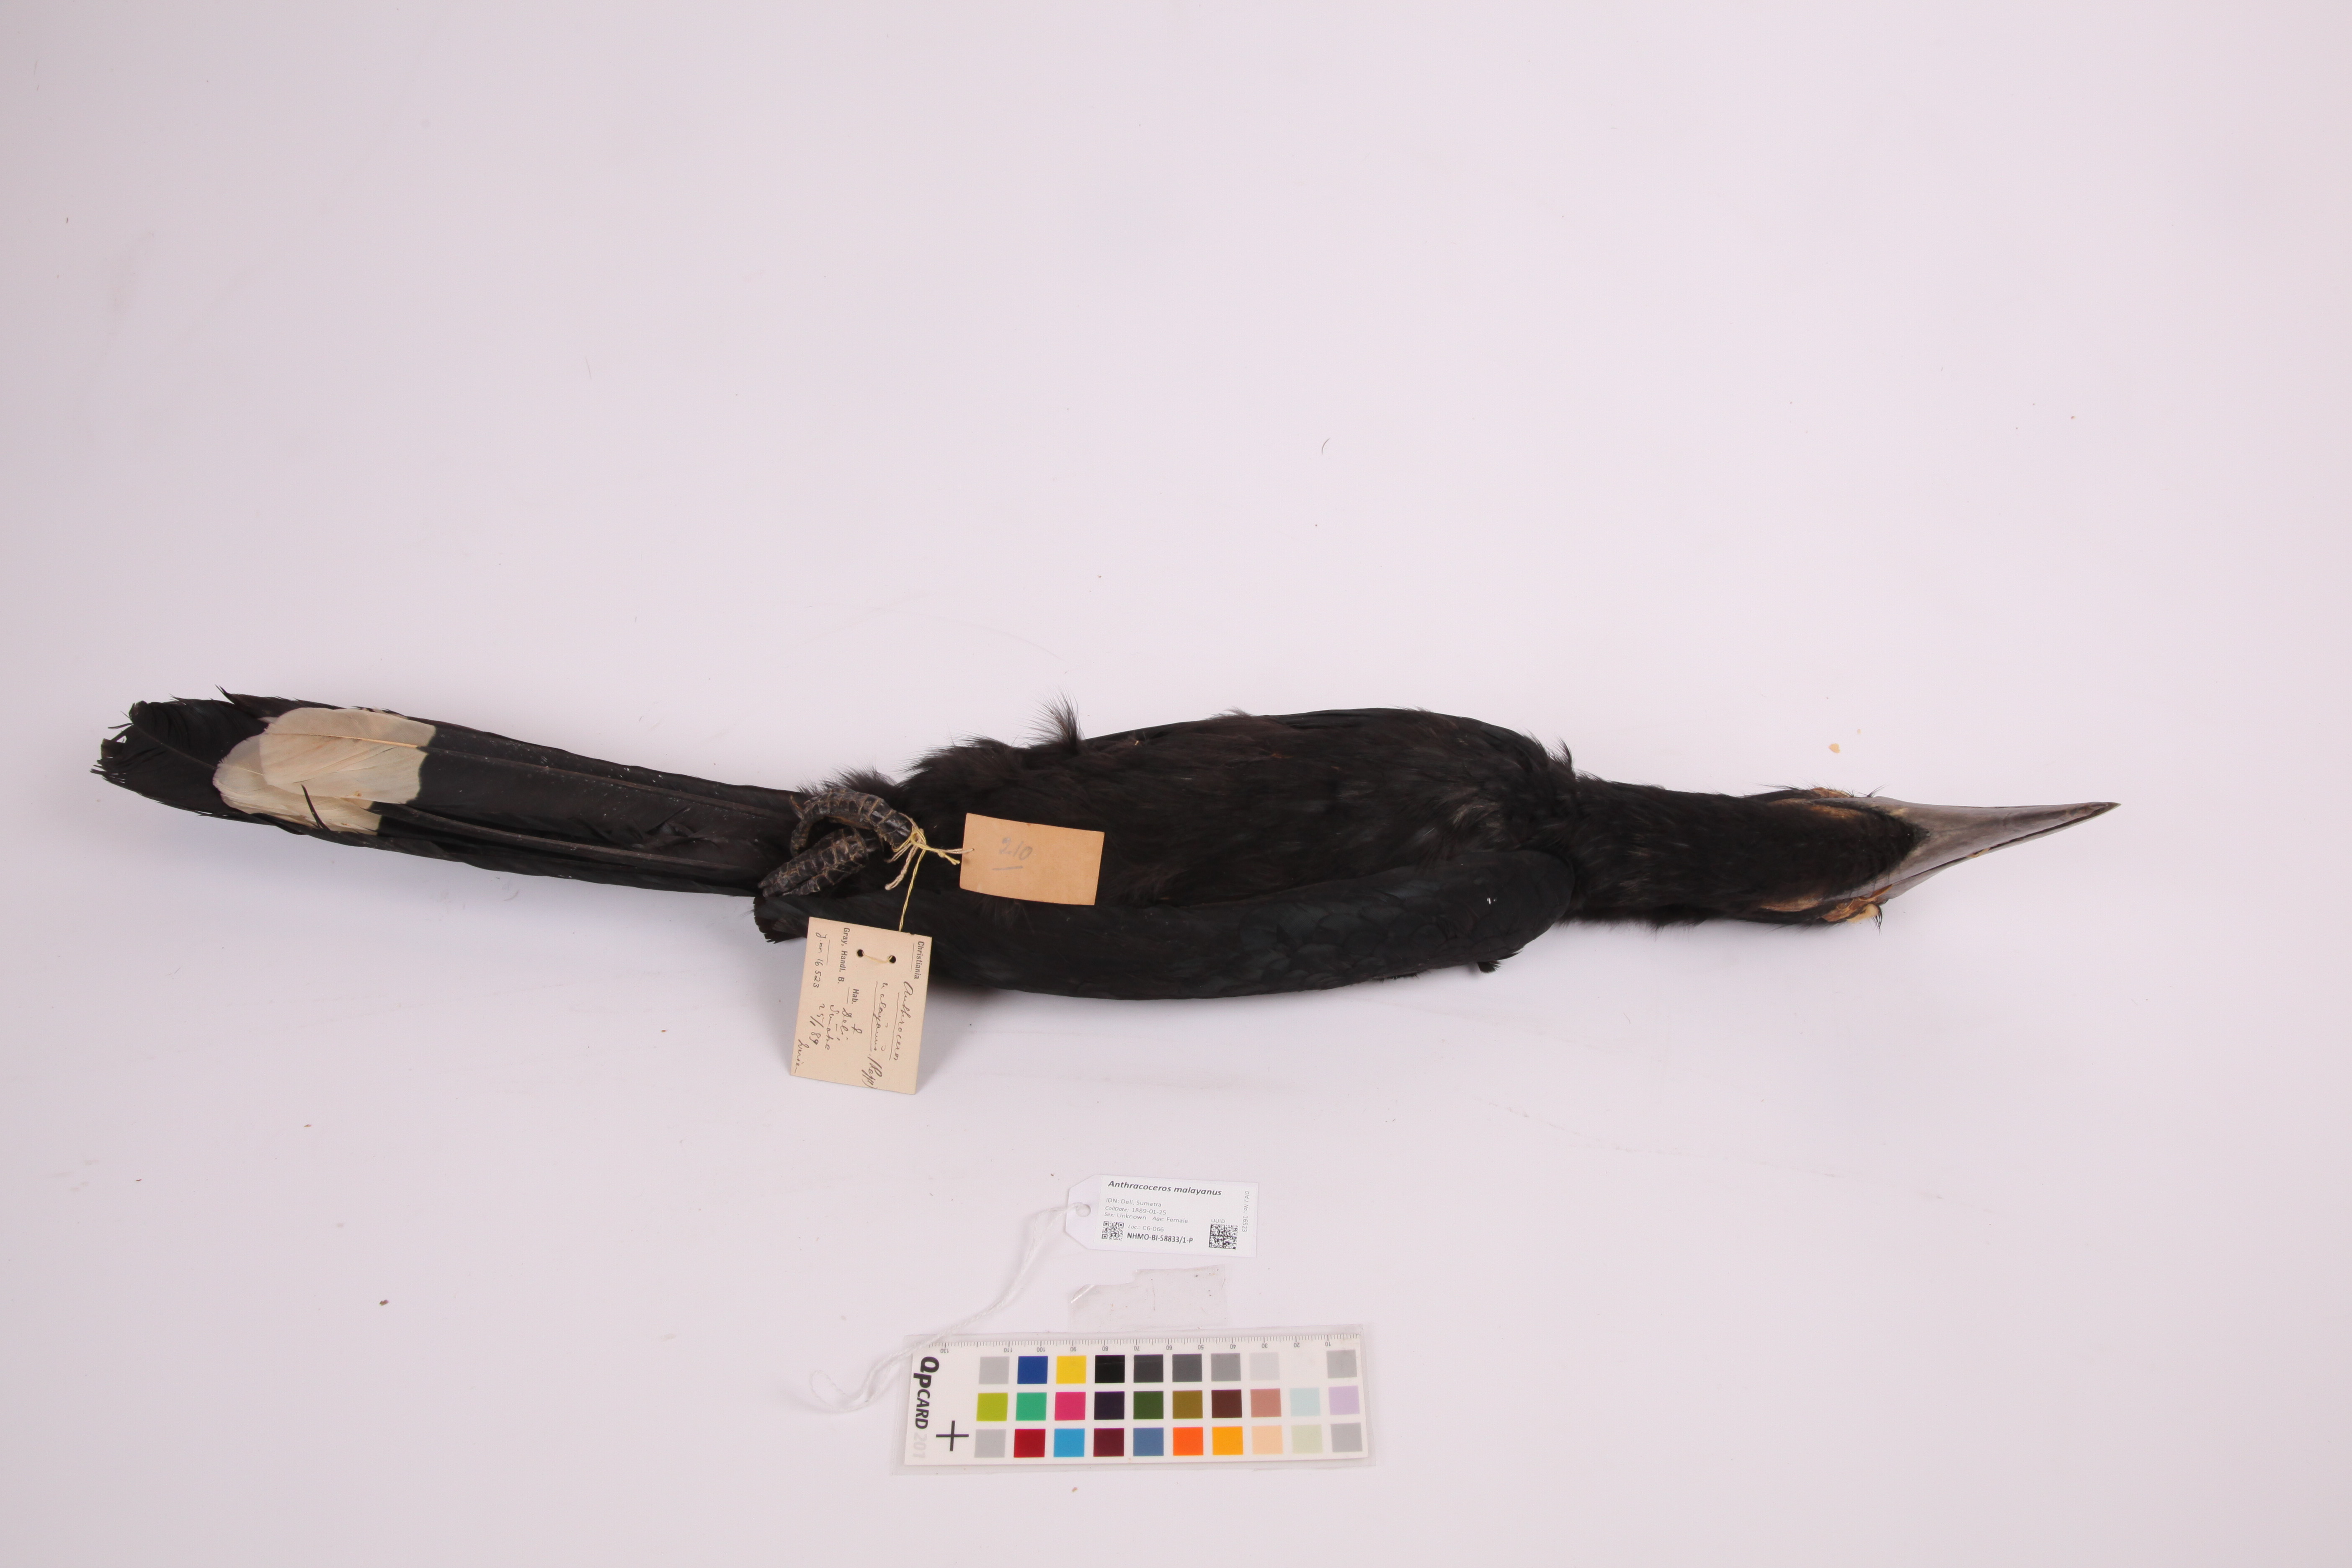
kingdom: Animalia
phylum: Chordata
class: Aves
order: Bucerotiformes
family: Bucerotidae
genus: Anthracoceros
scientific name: Anthracoceros malayanus
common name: Black hornbill
